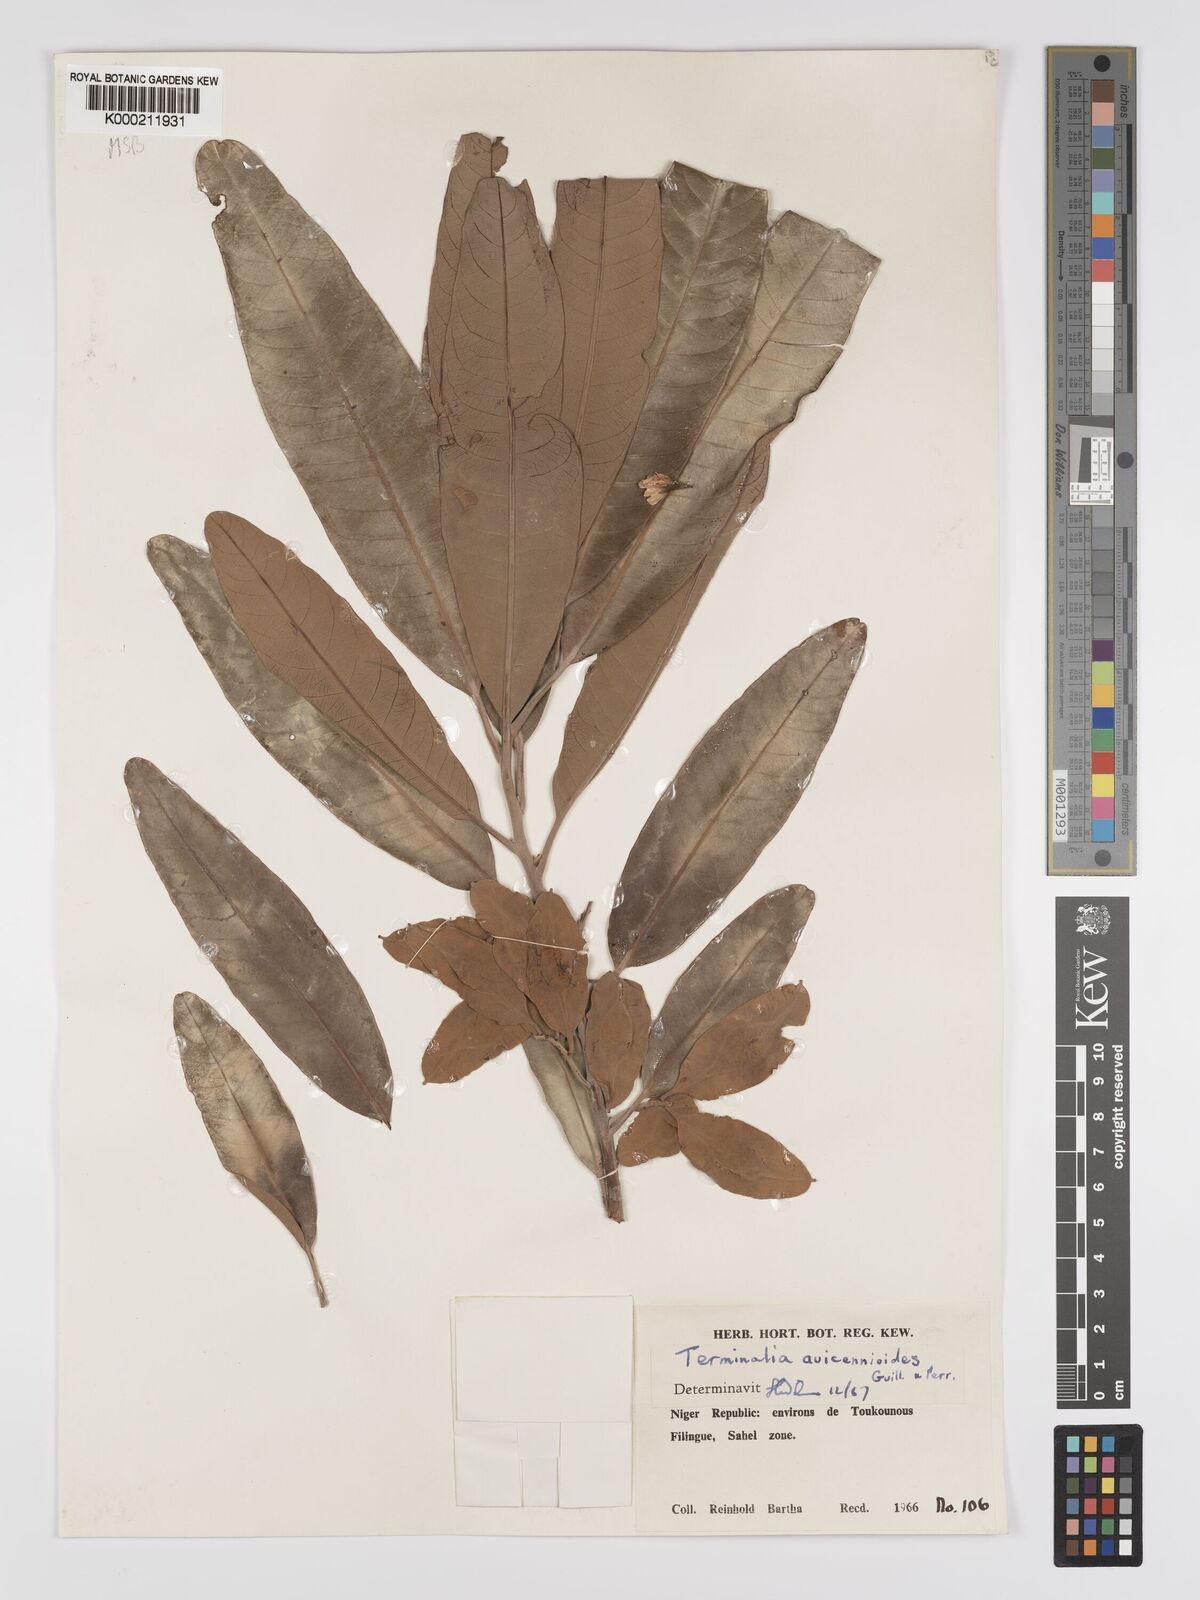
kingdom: Plantae
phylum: Tracheophyta
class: Magnoliopsida
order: Myrtales
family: Combretaceae
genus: Terminalia
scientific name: Terminalia avicennioides
